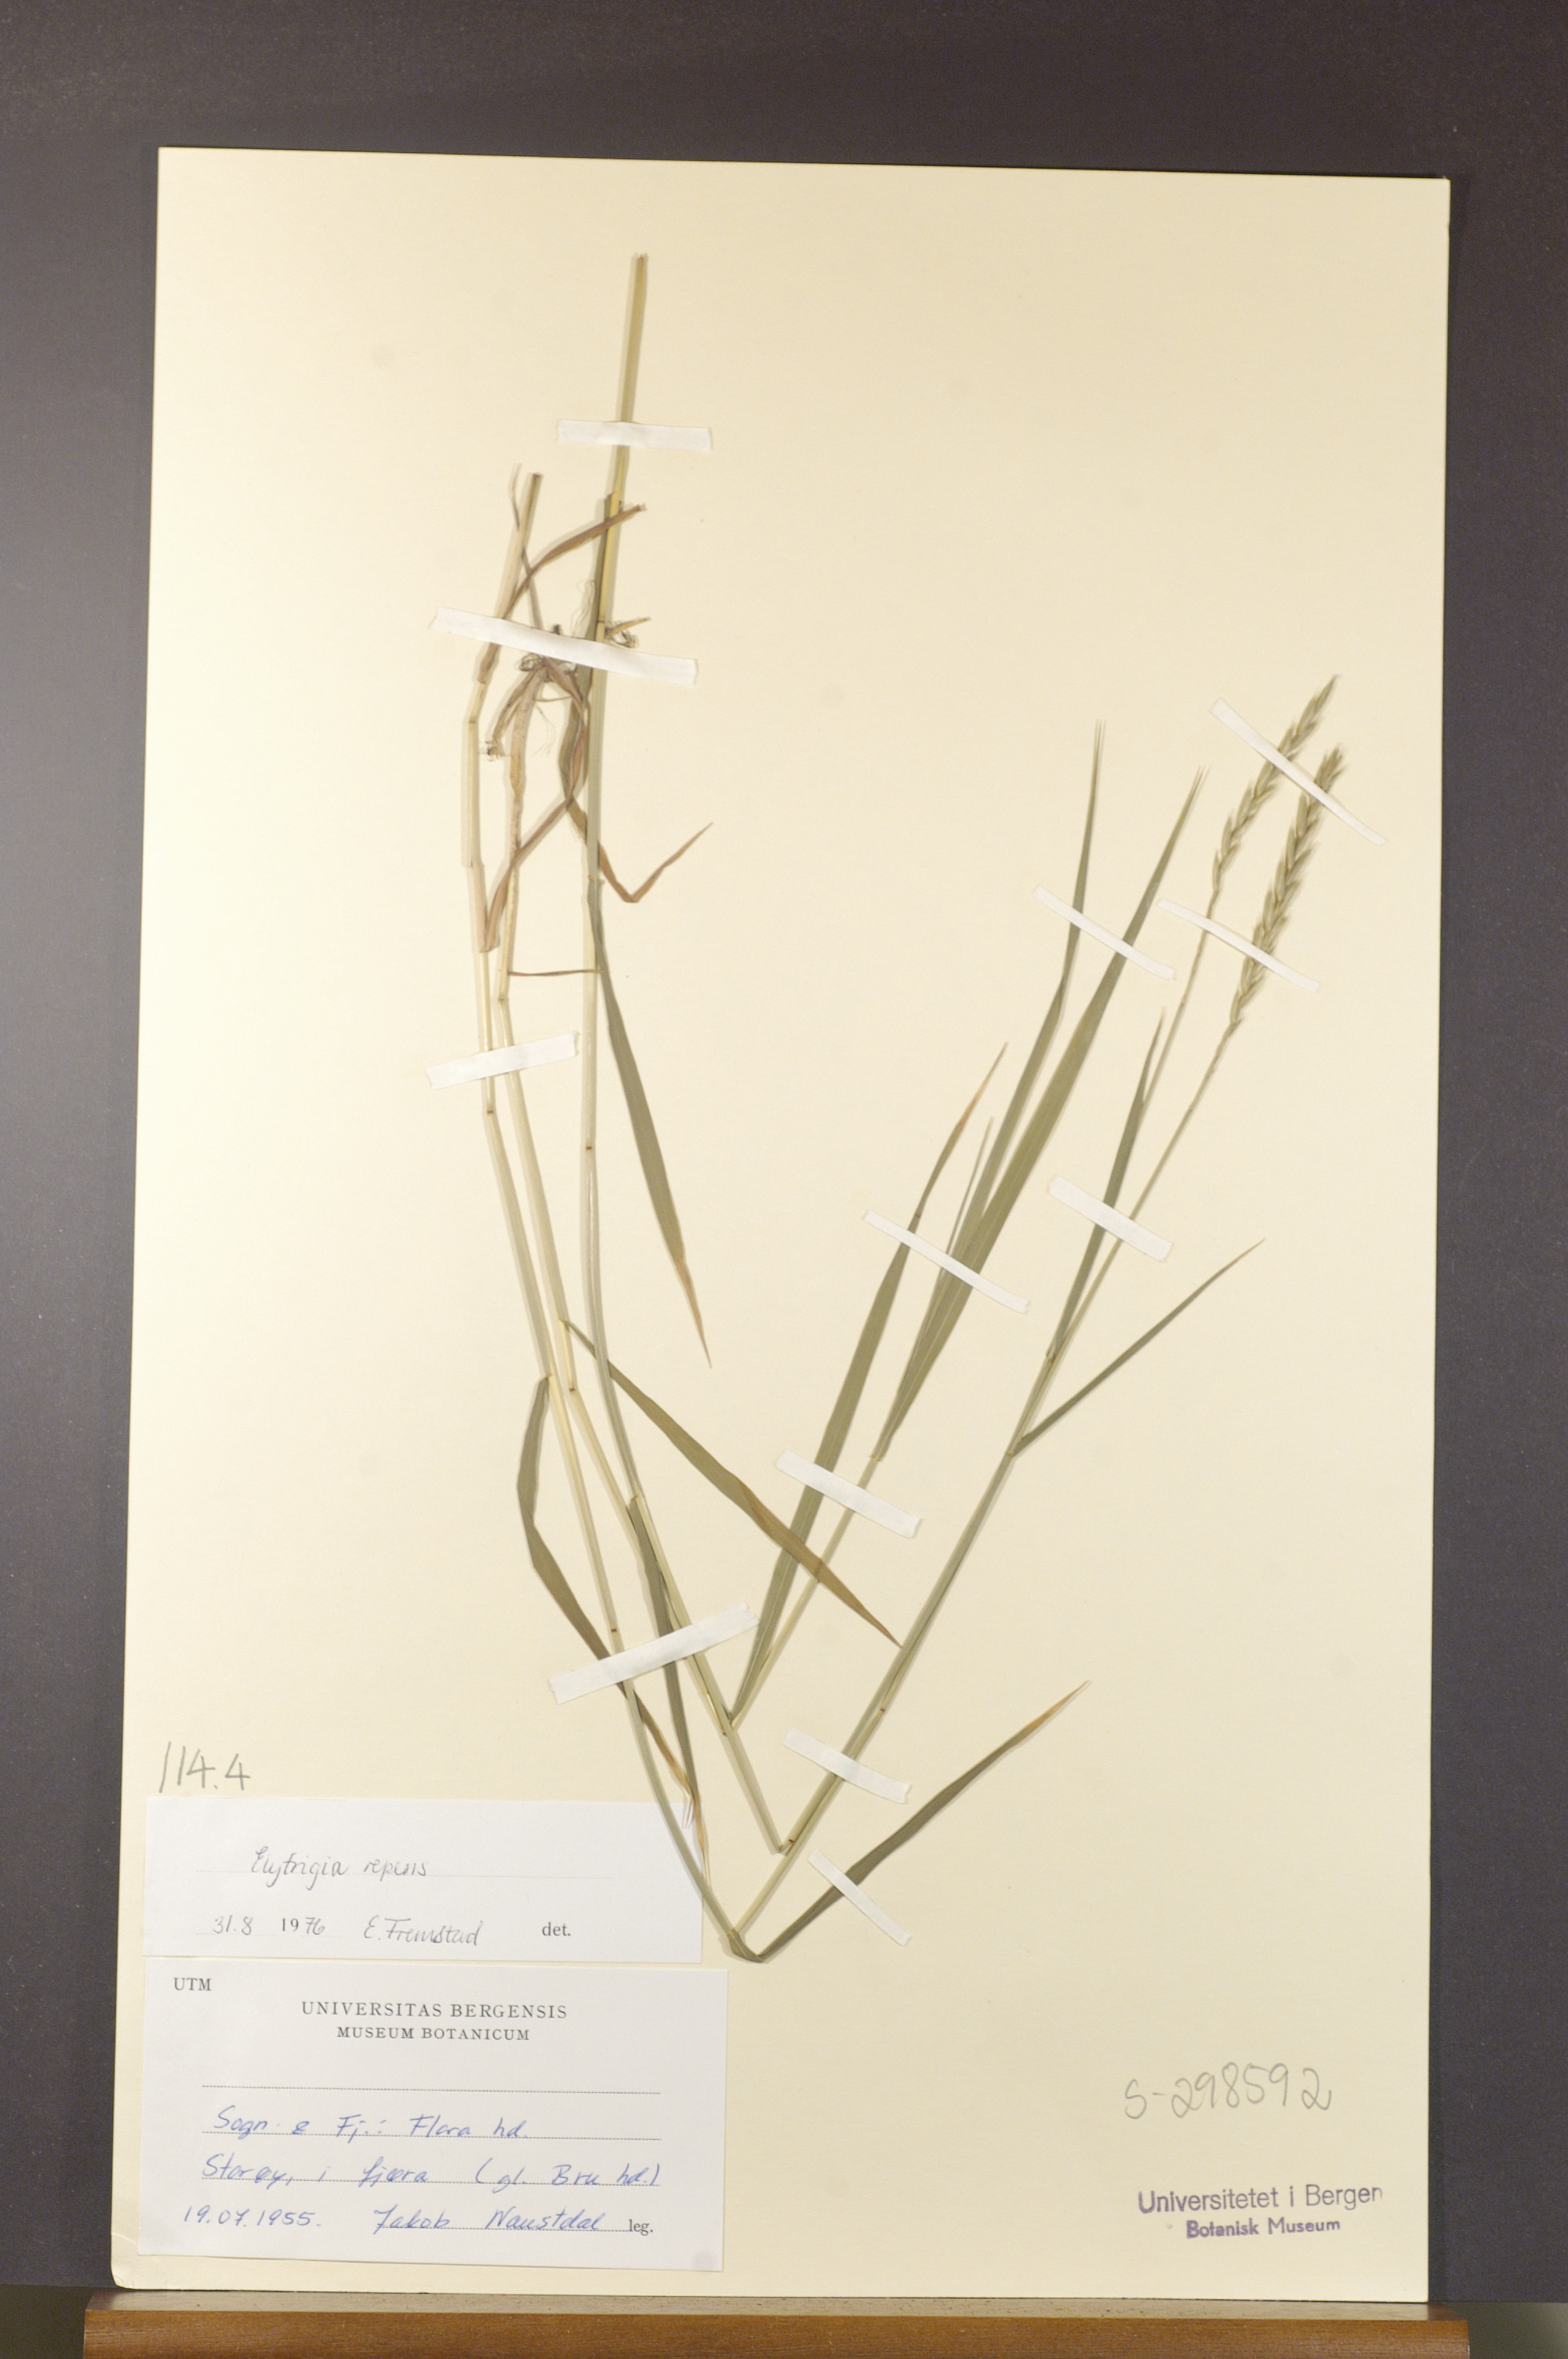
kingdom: Plantae
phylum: Tracheophyta
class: Liliopsida
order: Poales
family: Poaceae
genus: Elymus
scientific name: Elymus repens
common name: Quackgrass
